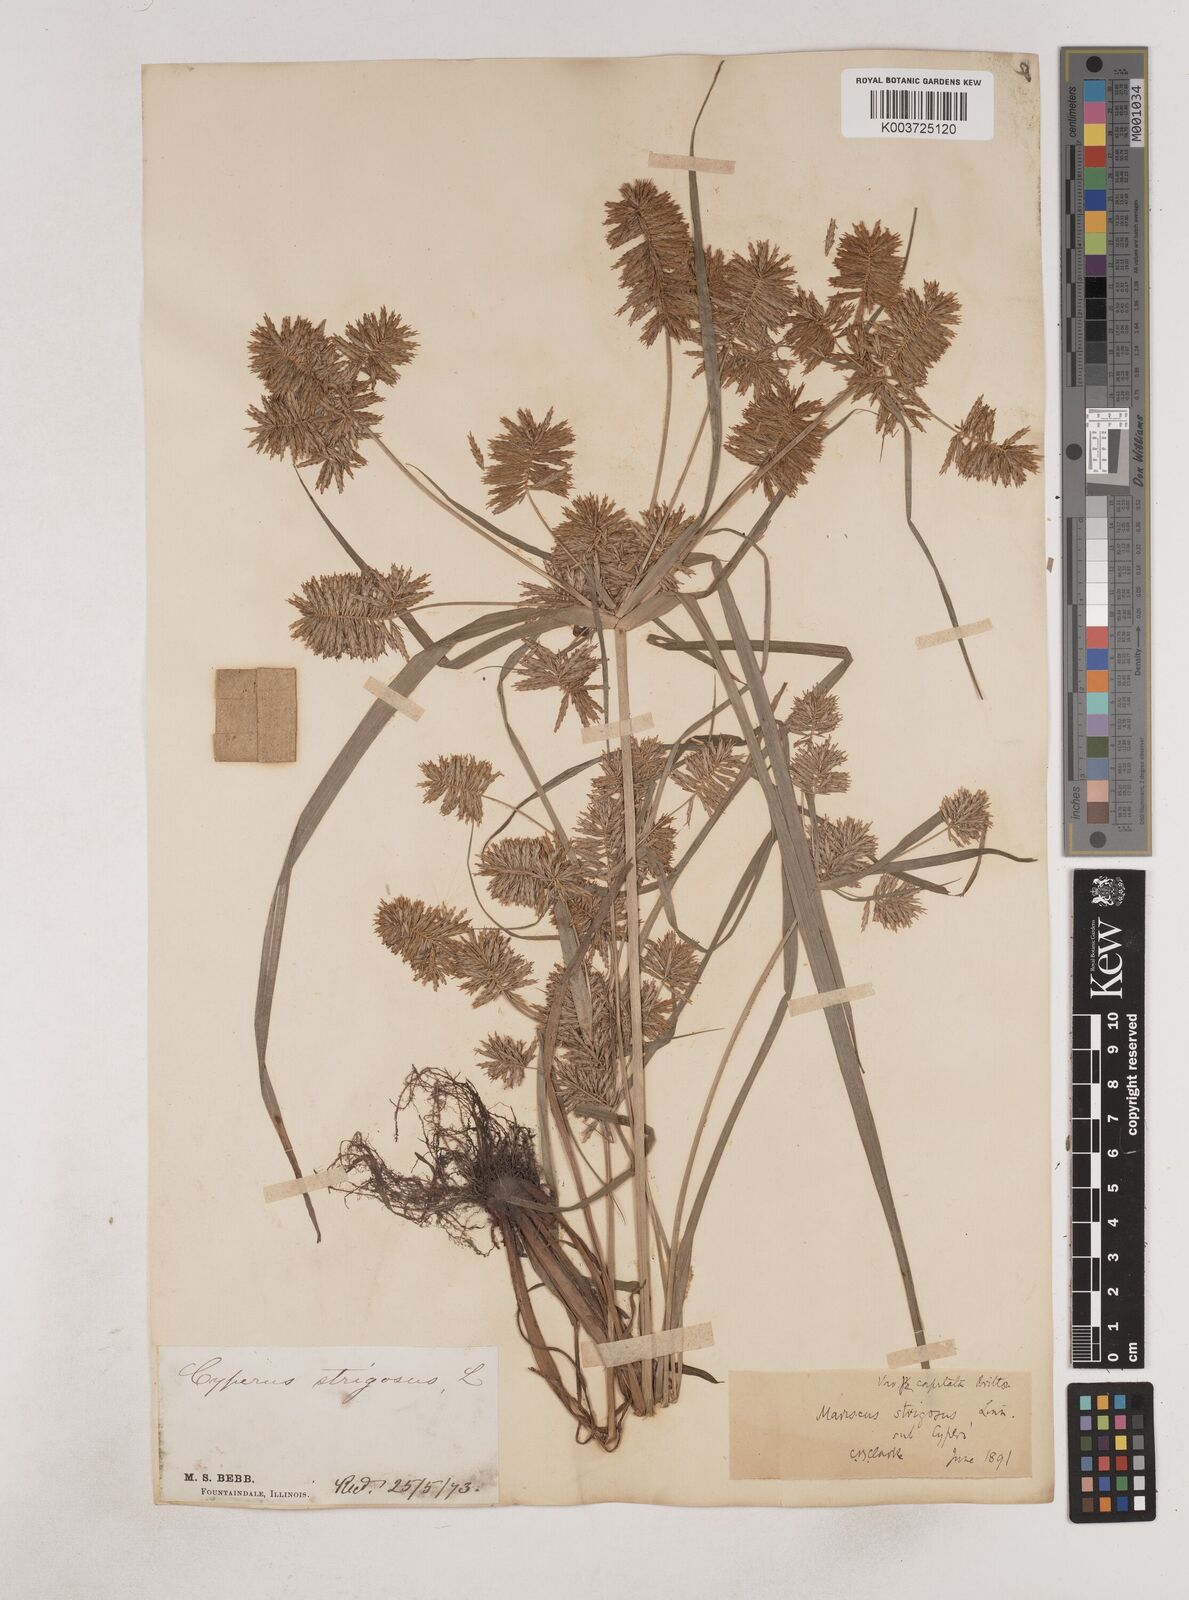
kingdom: Plantae
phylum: Tracheophyta
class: Liliopsida
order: Poales
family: Cyperaceae
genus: Cyperus
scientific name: Cyperus strigosus
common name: False nutsedge
